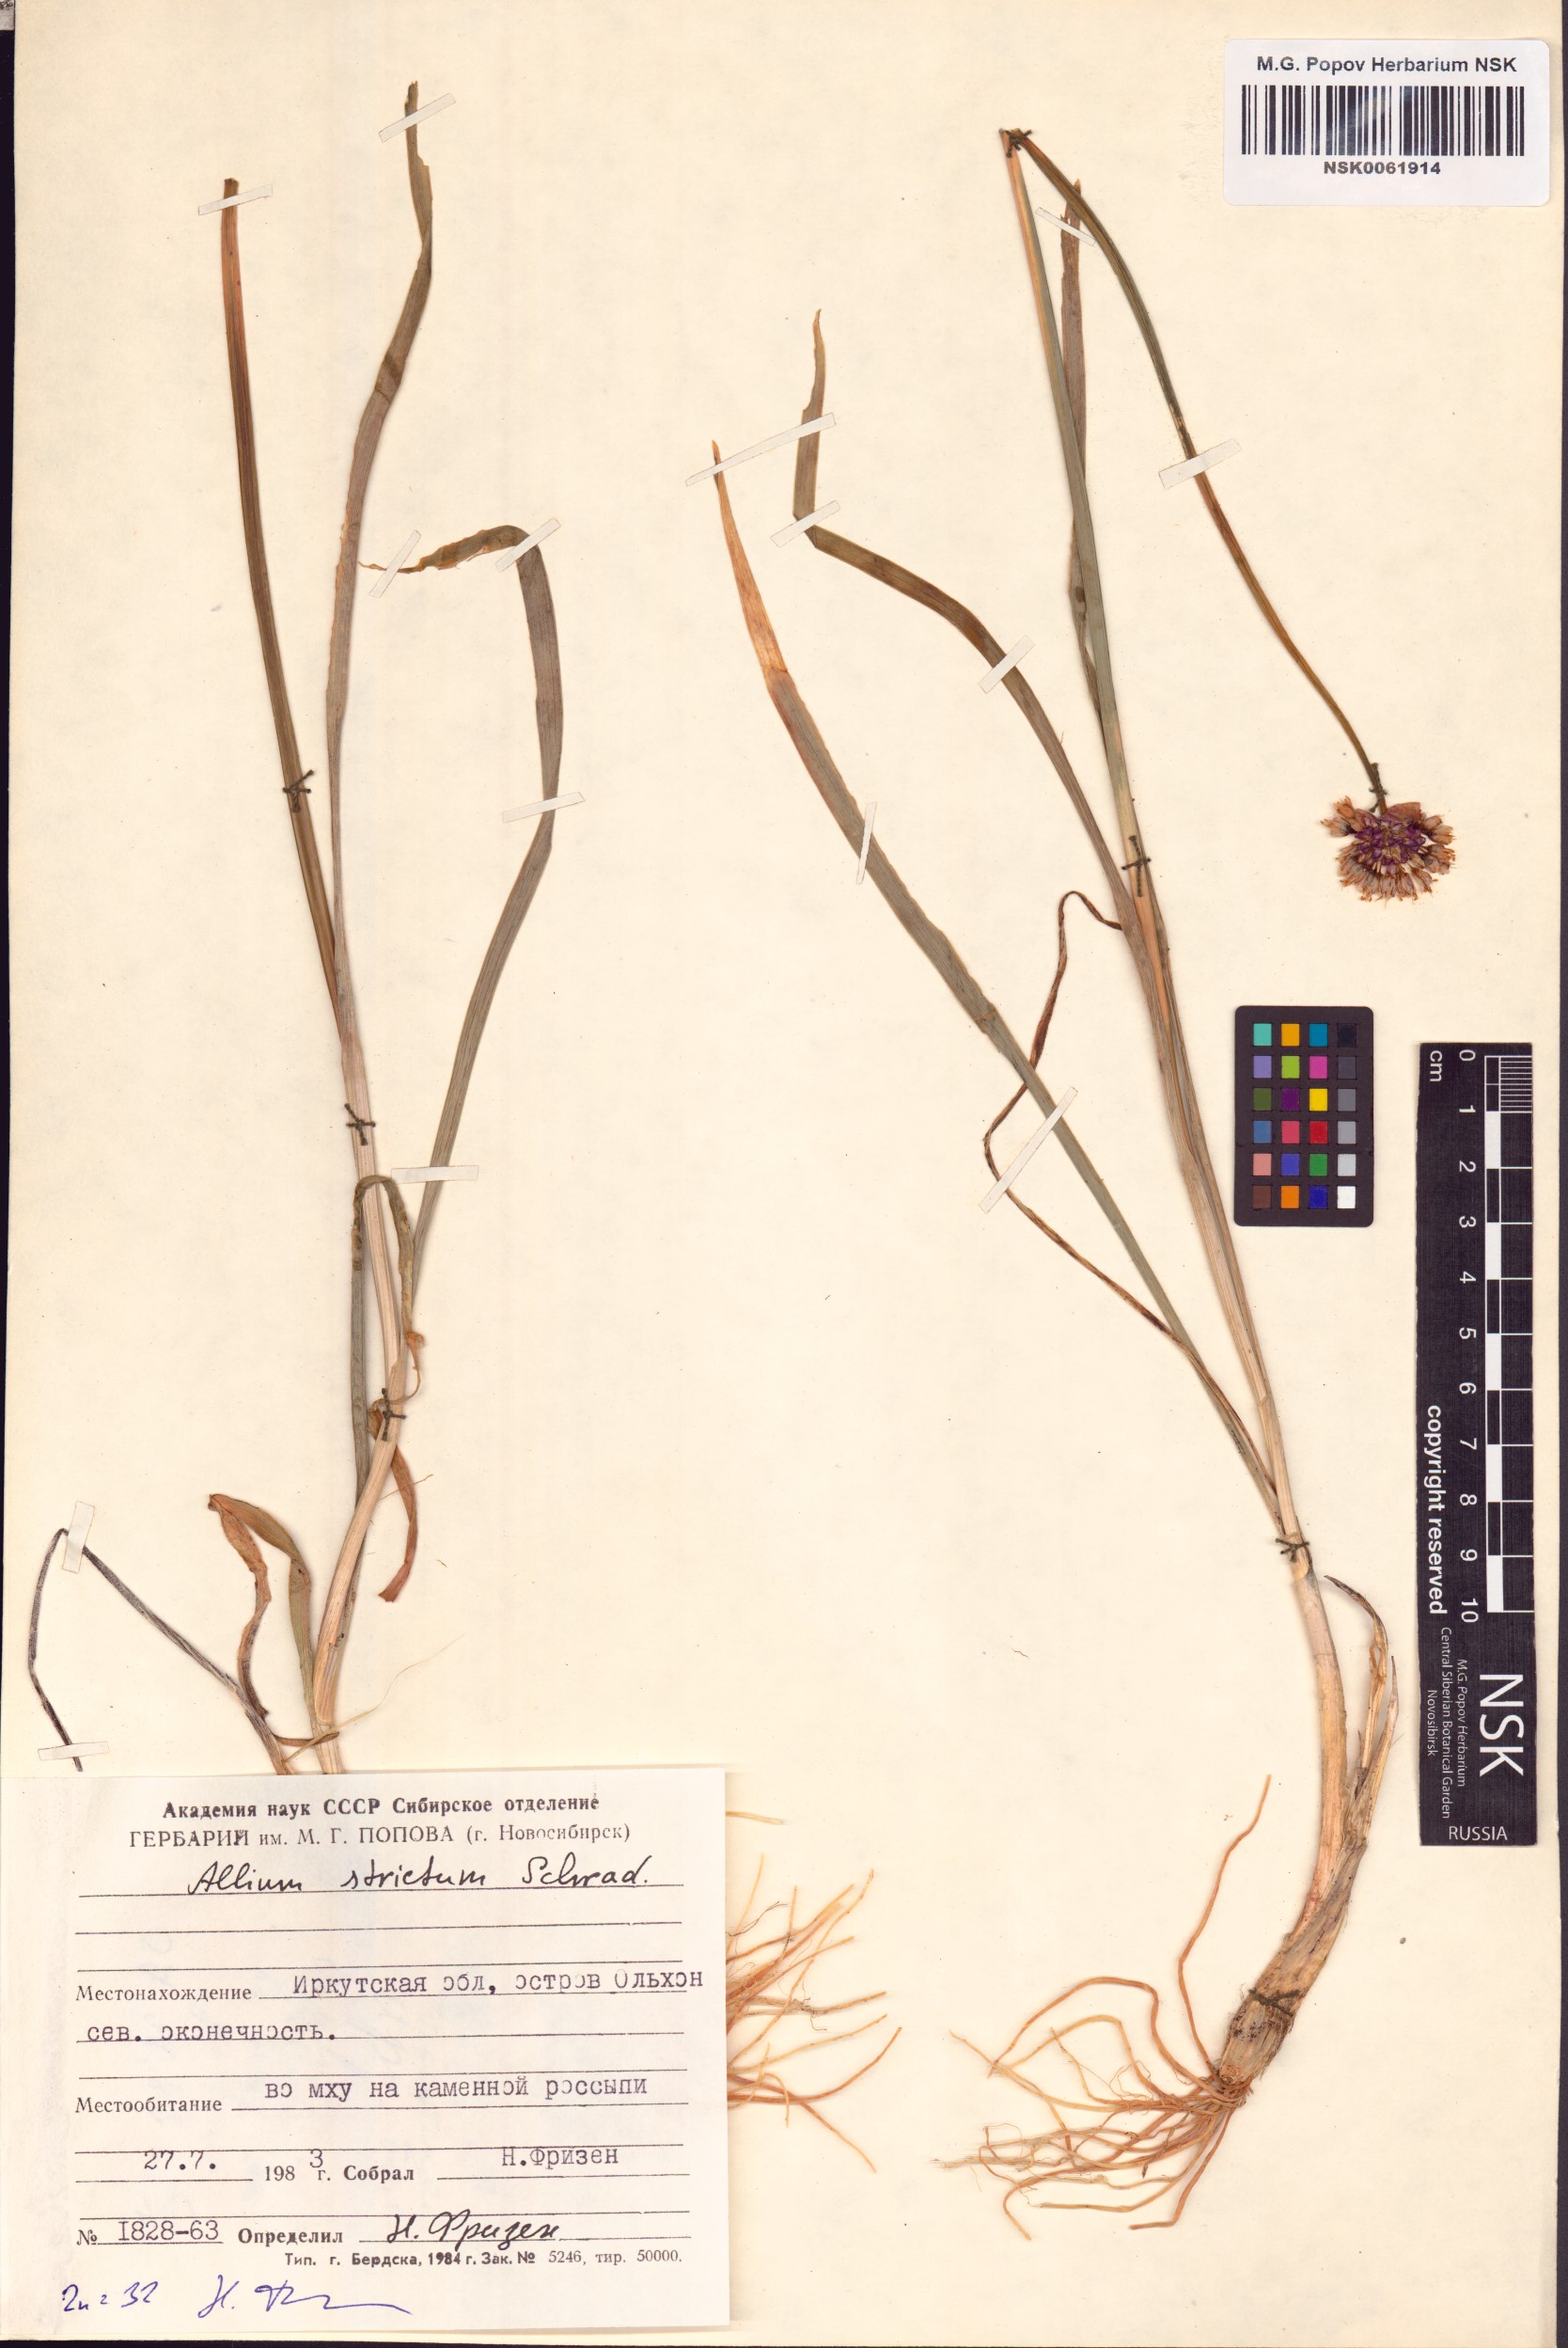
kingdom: Plantae
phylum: Tracheophyta
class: Liliopsida
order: Asparagales
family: Amaryllidaceae
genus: Allium
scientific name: Allium strictum
